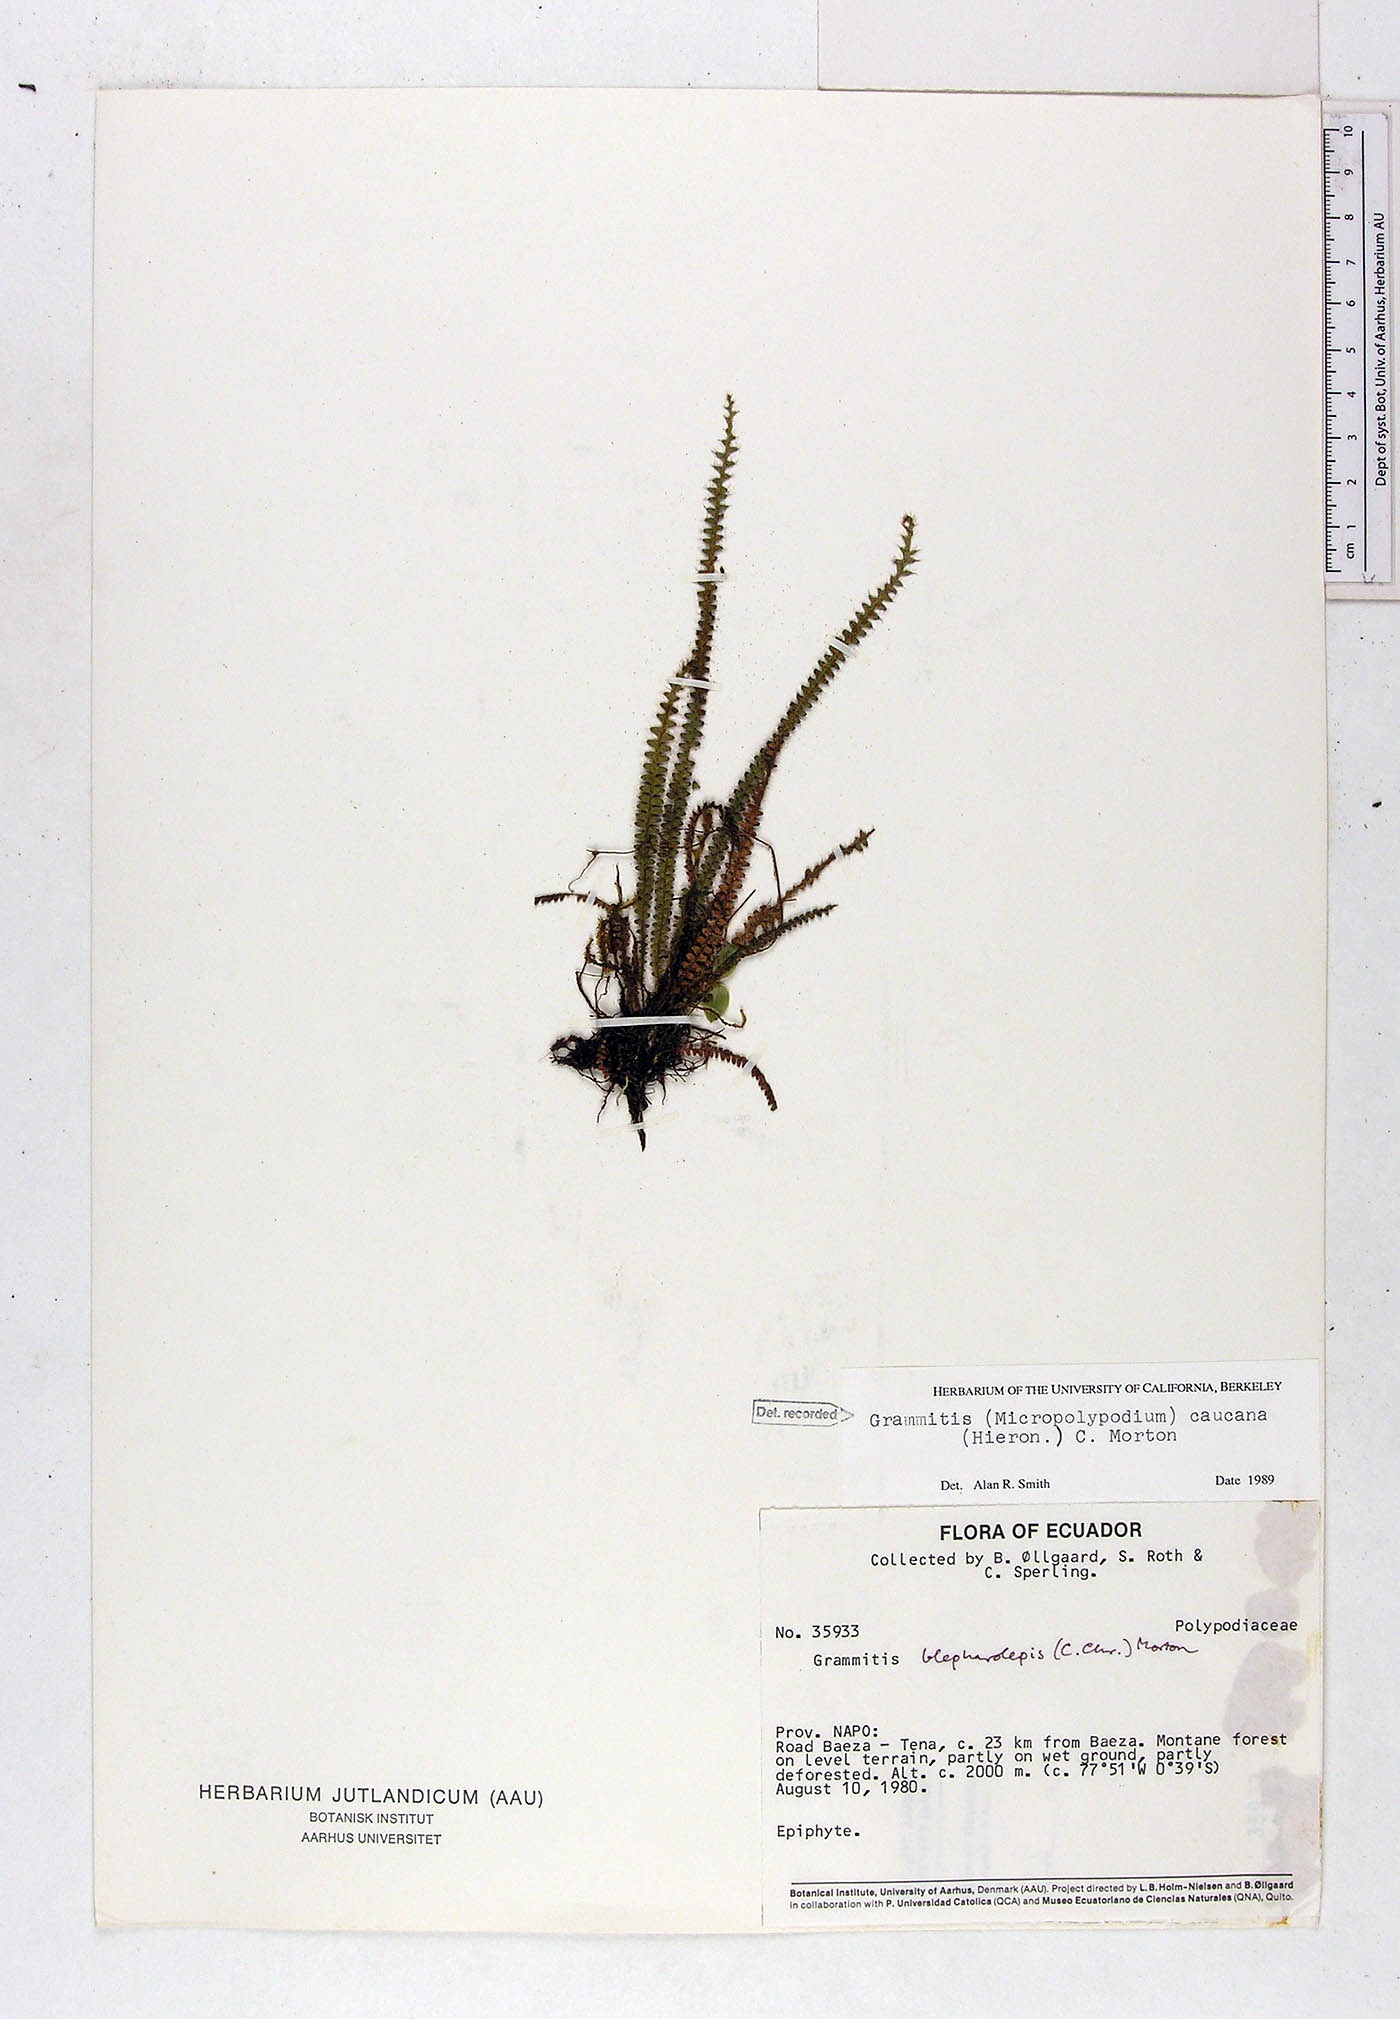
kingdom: Plantae
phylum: Tracheophyta
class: Polypodiopsida
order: Polypodiales
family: Polypodiaceae
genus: Moranopteris
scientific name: Moranopteris caucana
